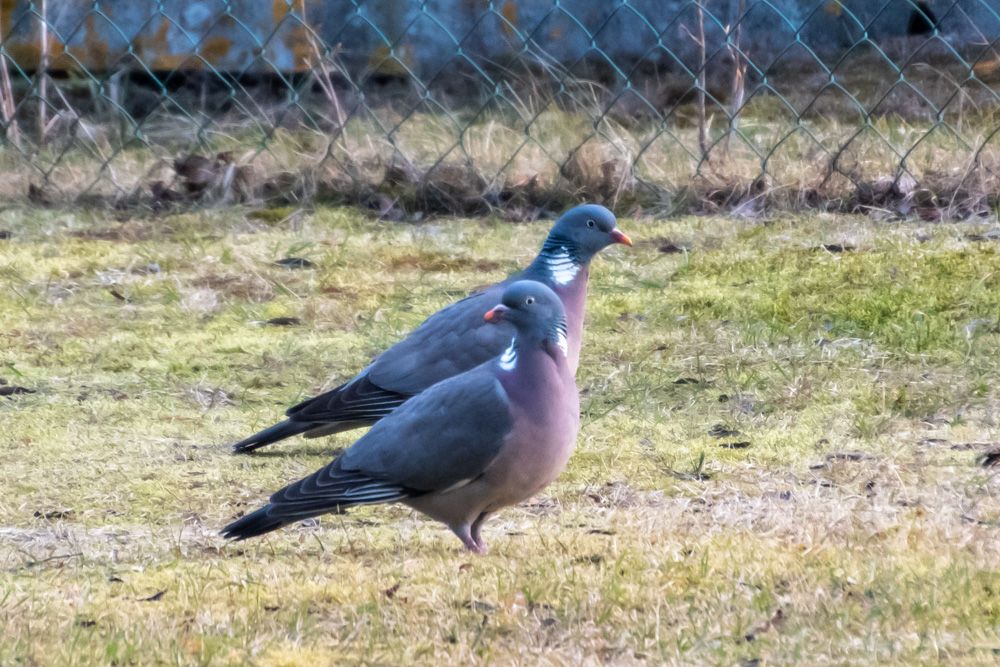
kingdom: Animalia
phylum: Chordata
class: Aves
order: Columbiformes
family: Columbidae
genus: Columba
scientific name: Columba palumbus
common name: Common wood pigeon
